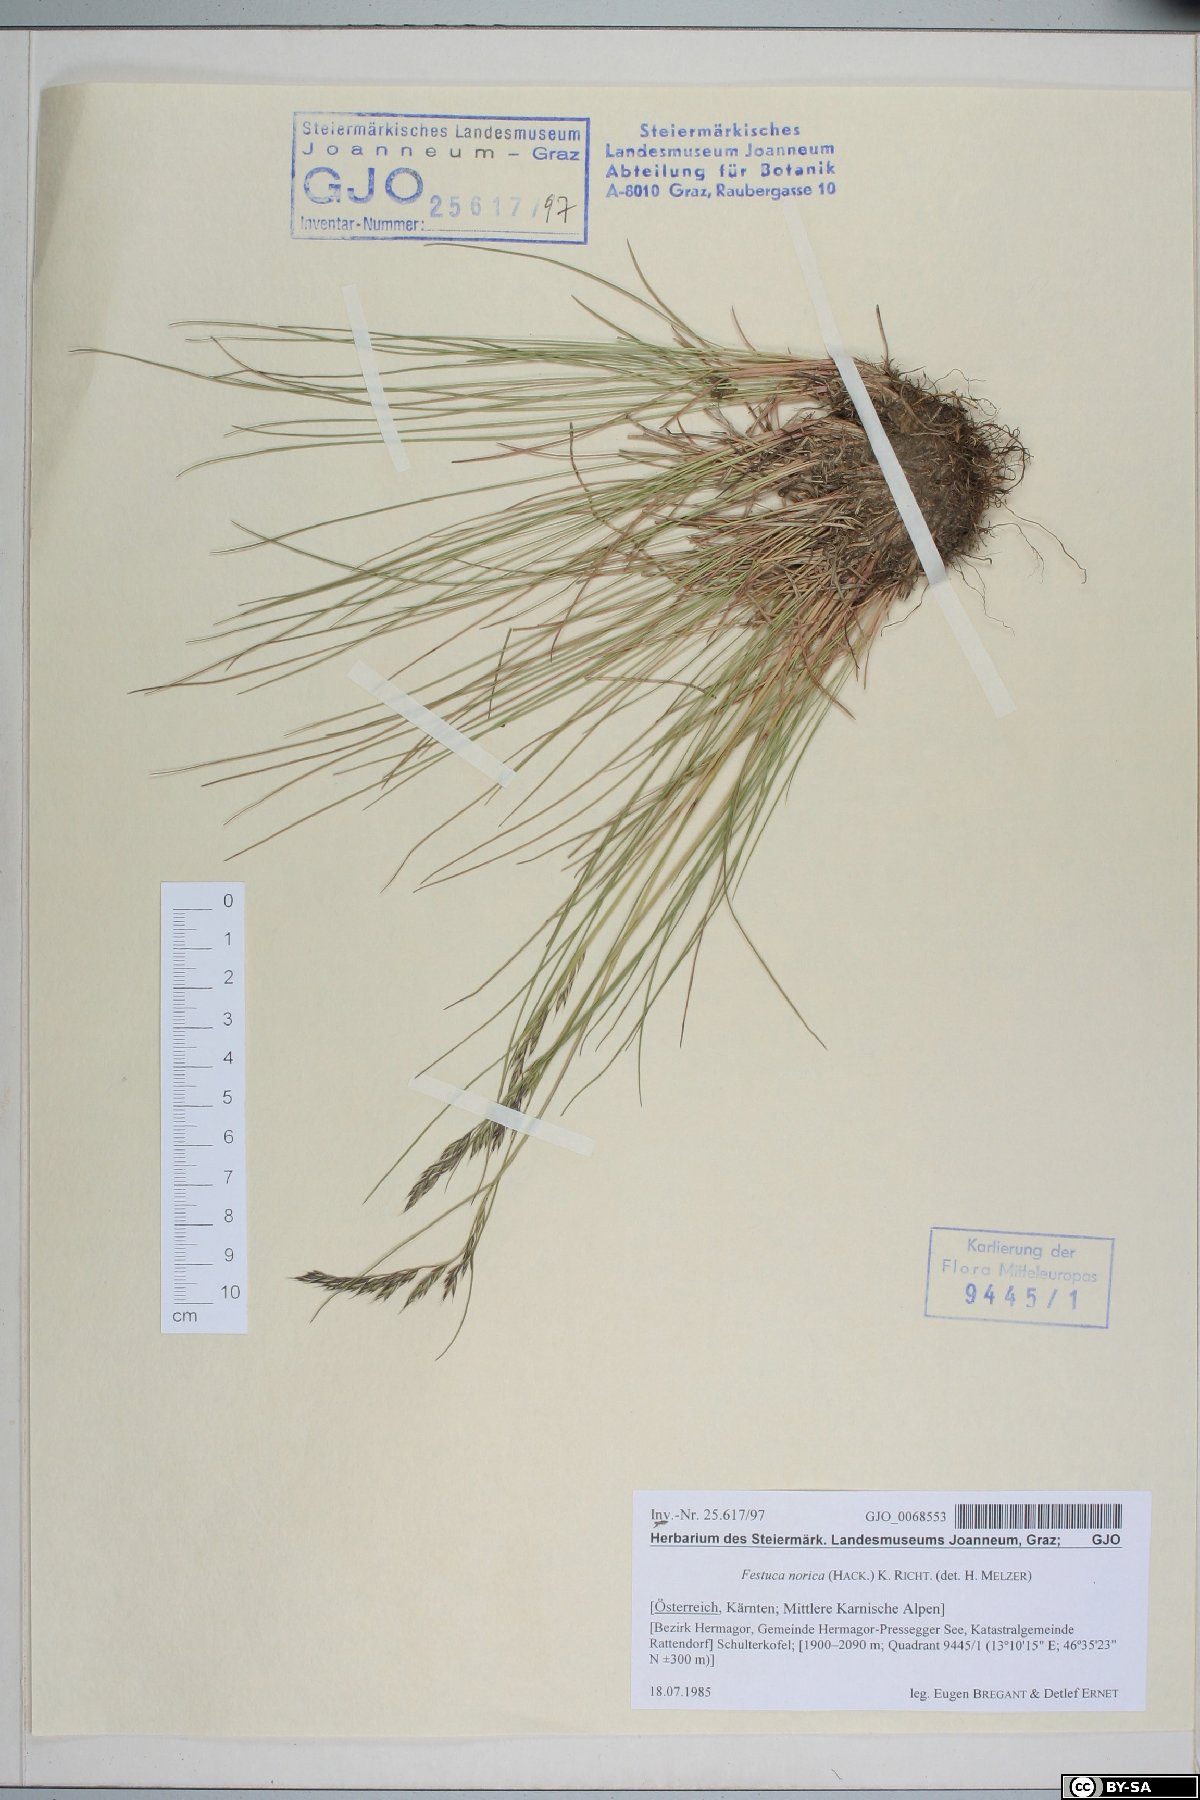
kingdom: Plantae
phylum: Tracheophyta
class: Liliopsida
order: Poales
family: Poaceae
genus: Festuca
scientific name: Festuca norica
